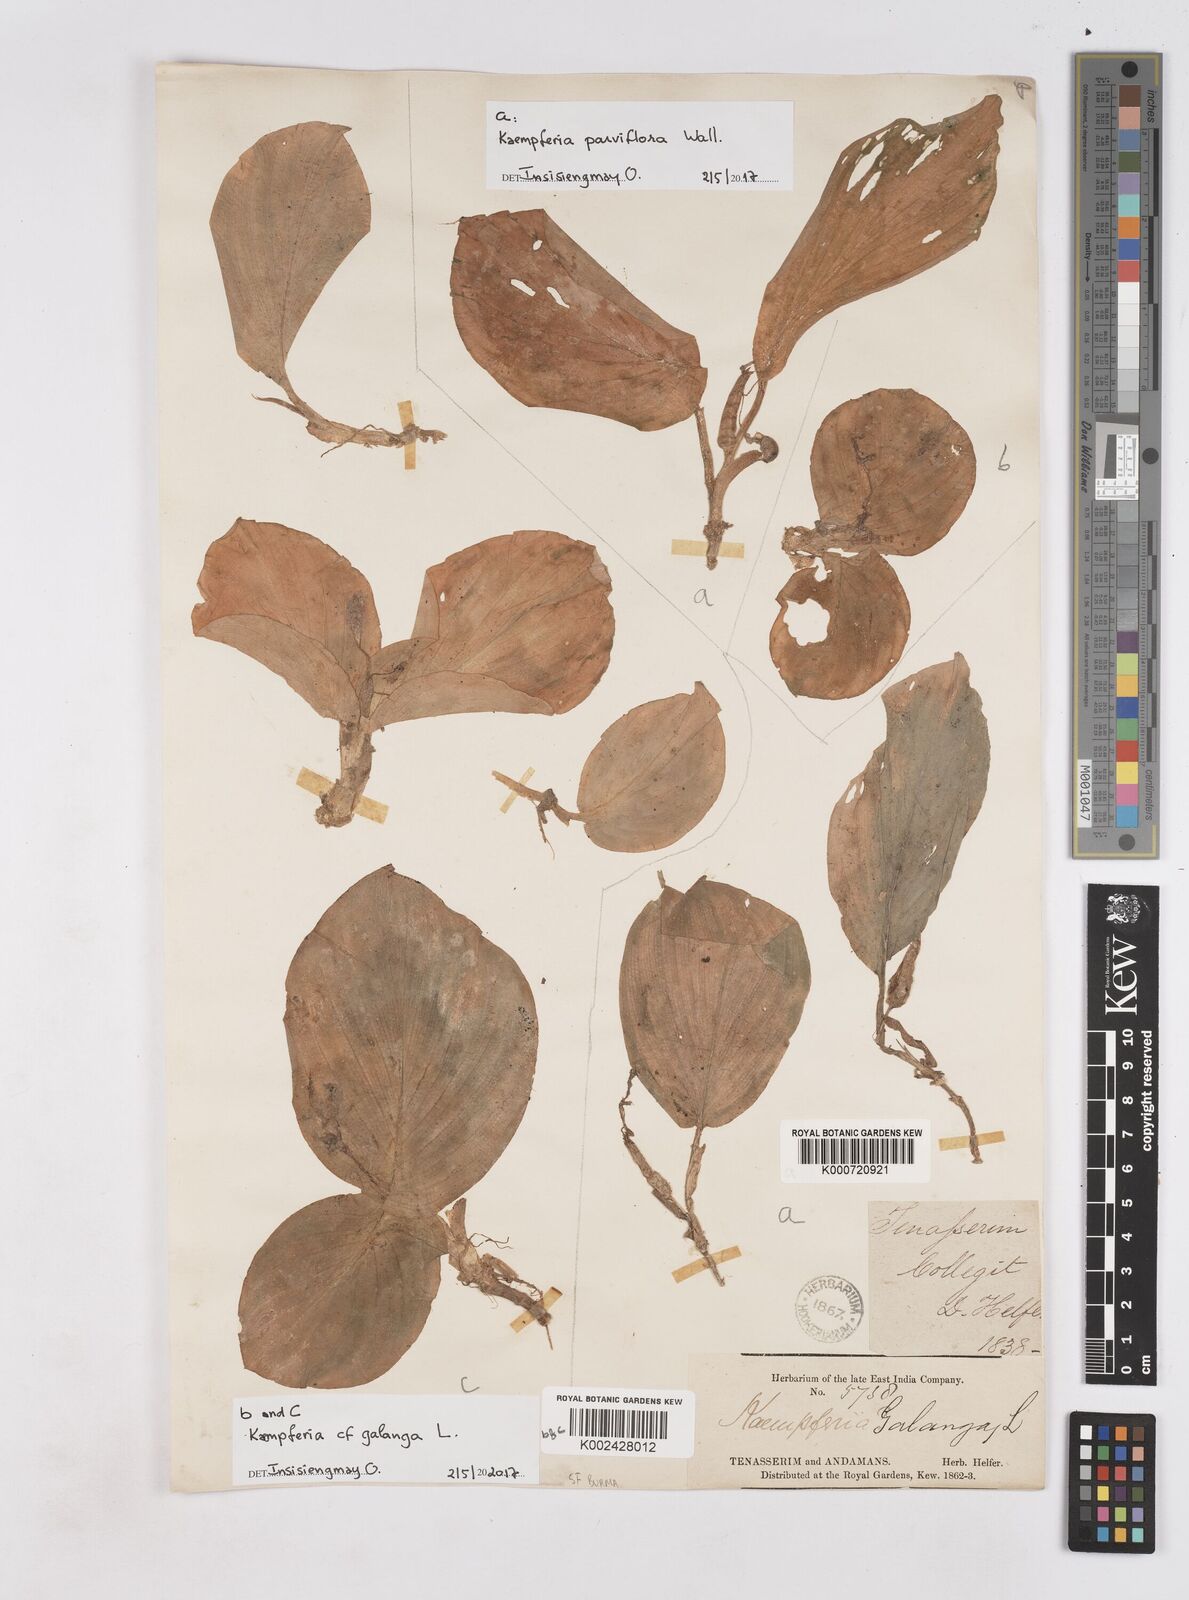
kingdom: Plantae
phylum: Tracheophyta
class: Liliopsida
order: Zingiberales
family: Zingiberaceae
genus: Kaempferia
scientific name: Kaempferia parviflora
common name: Black galingale
